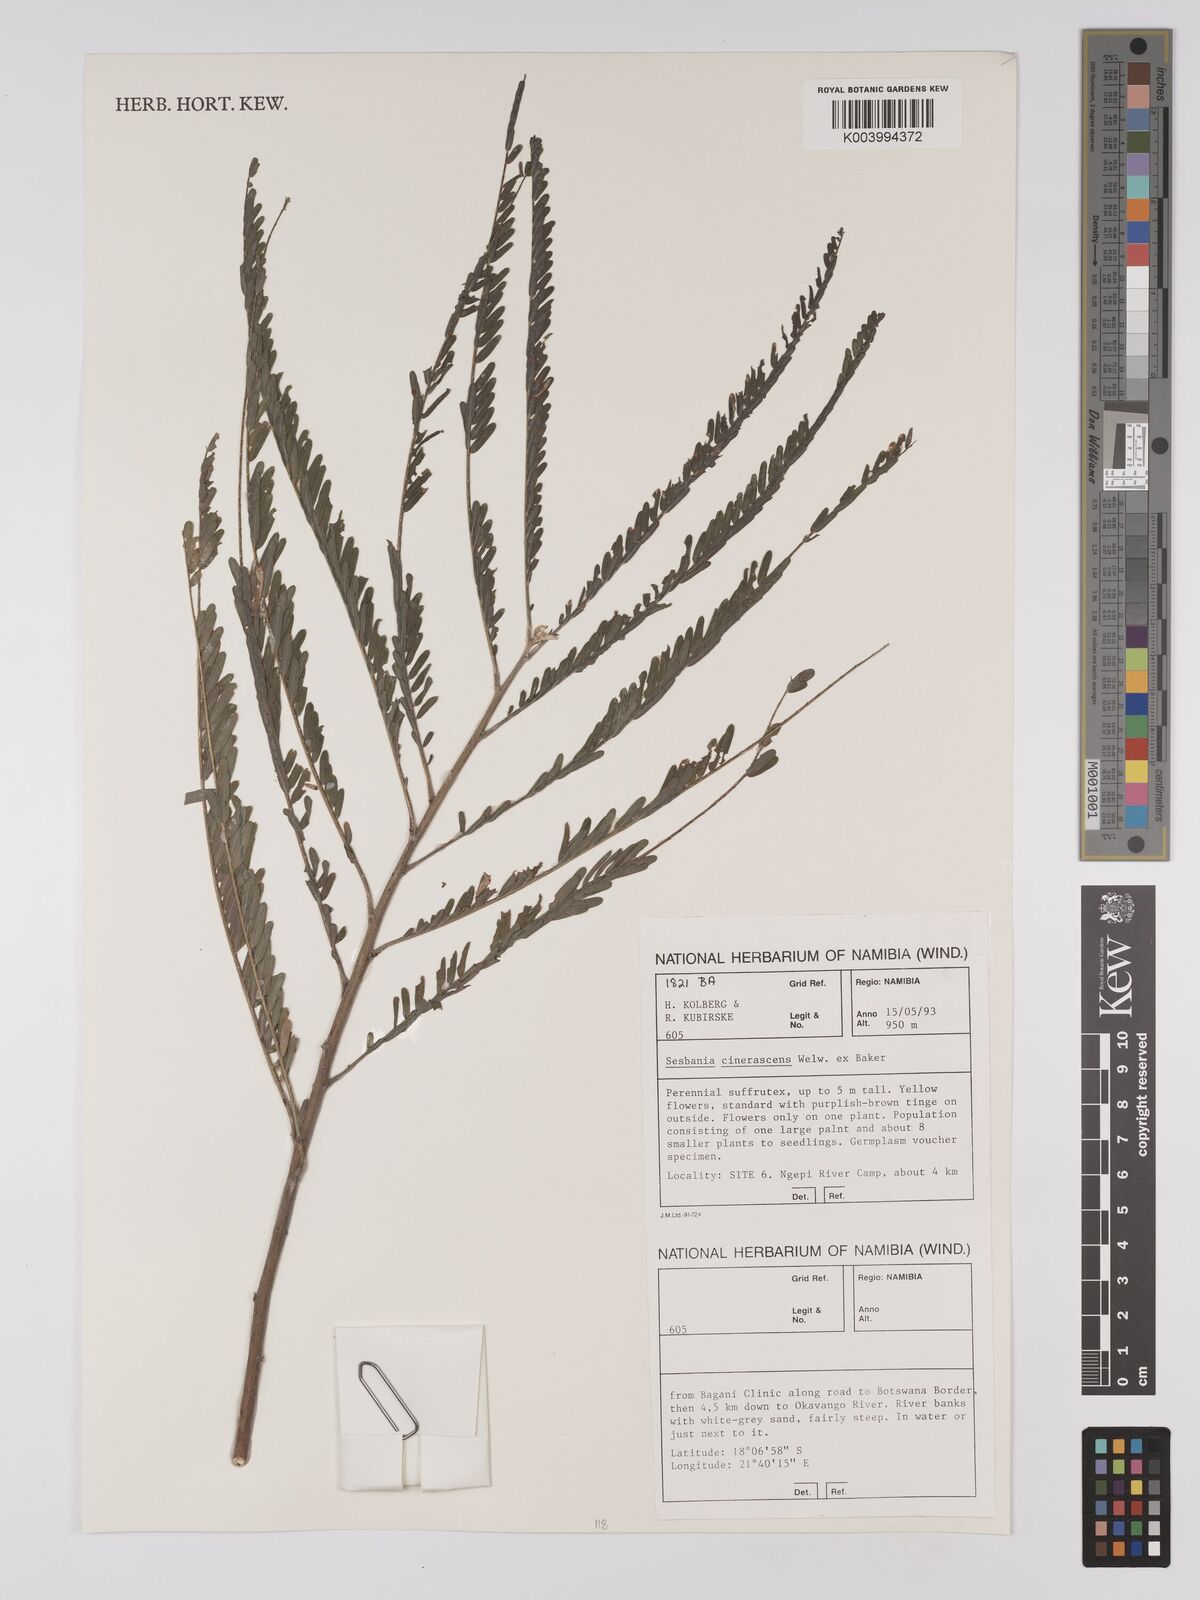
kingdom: Plantae
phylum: Tracheophyta
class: Magnoliopsida
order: Fabales
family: Fabaceae
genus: Sesbania
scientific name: Sesbania cinerascens
